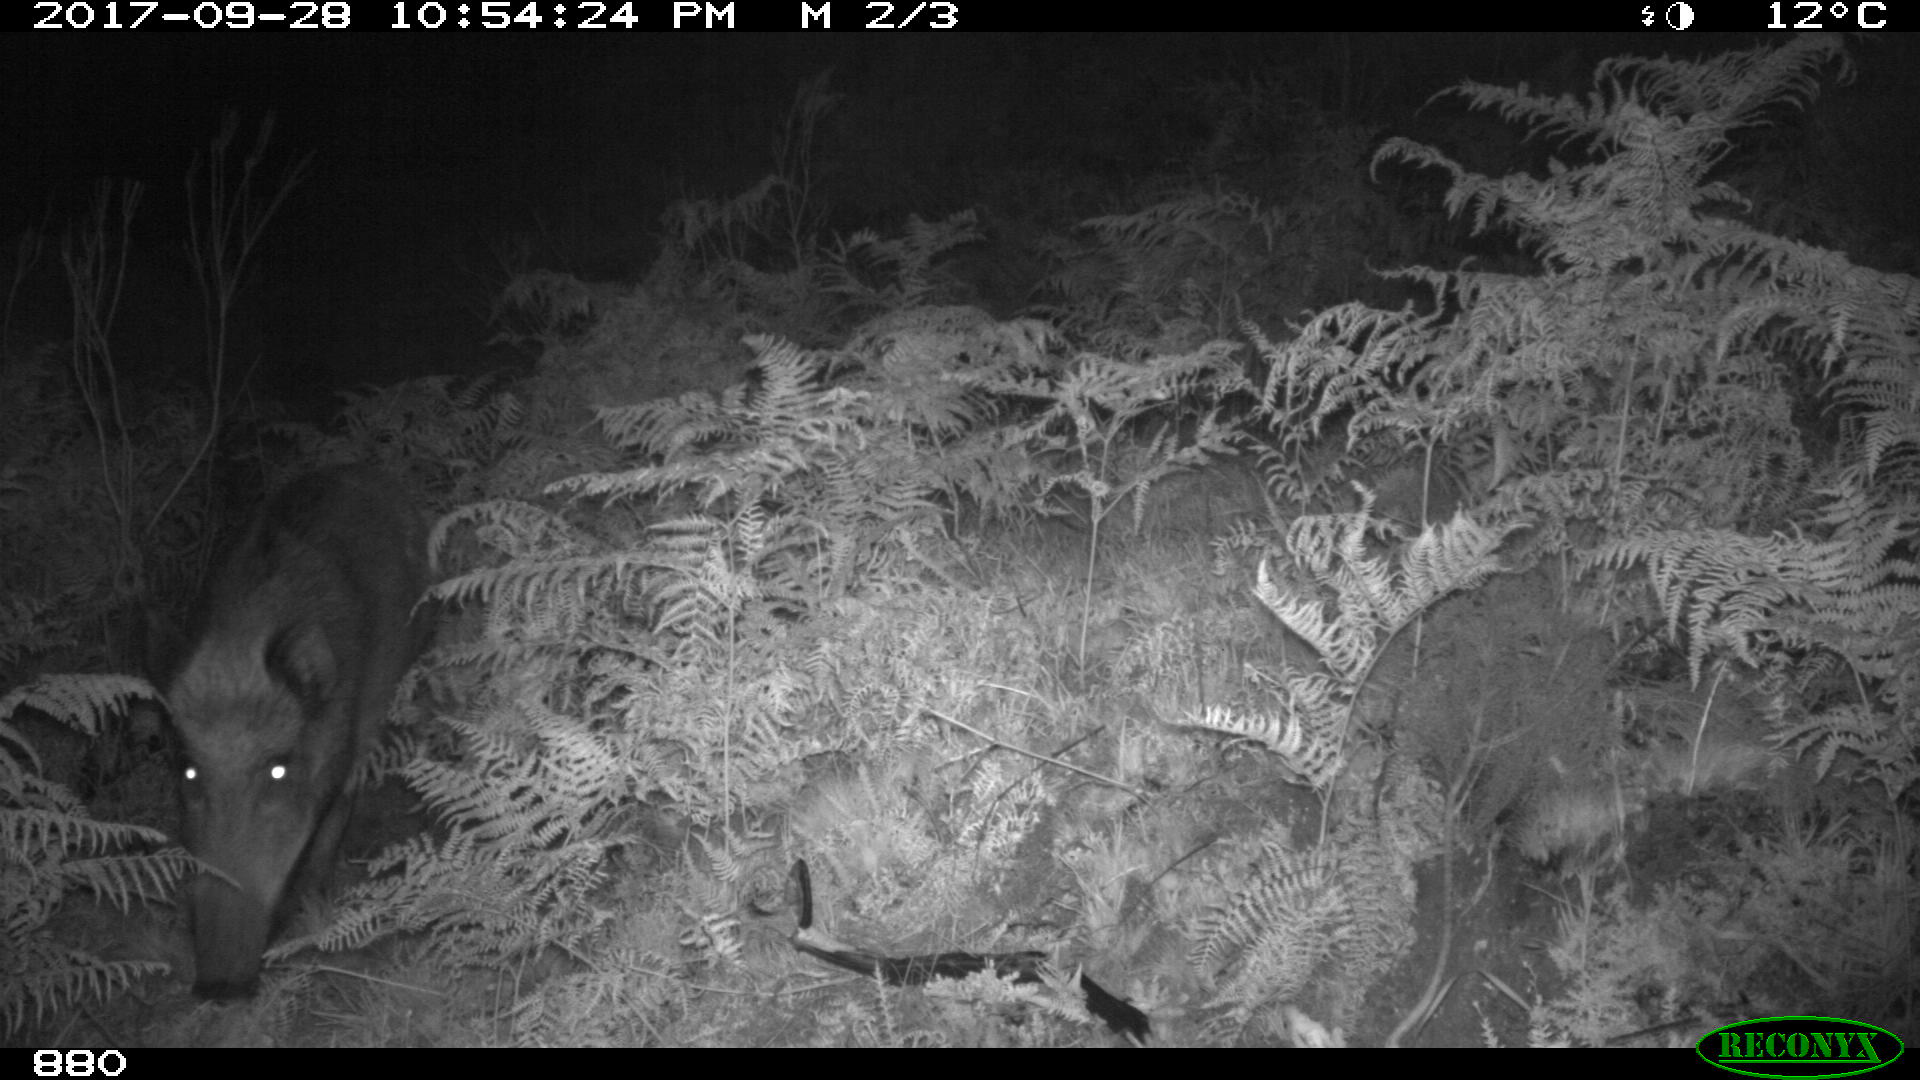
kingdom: Animalia
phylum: Chordata
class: Mammalia
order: Artiodactyla
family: Suidae
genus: Sus
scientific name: Sus scrofa
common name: Wild boar
